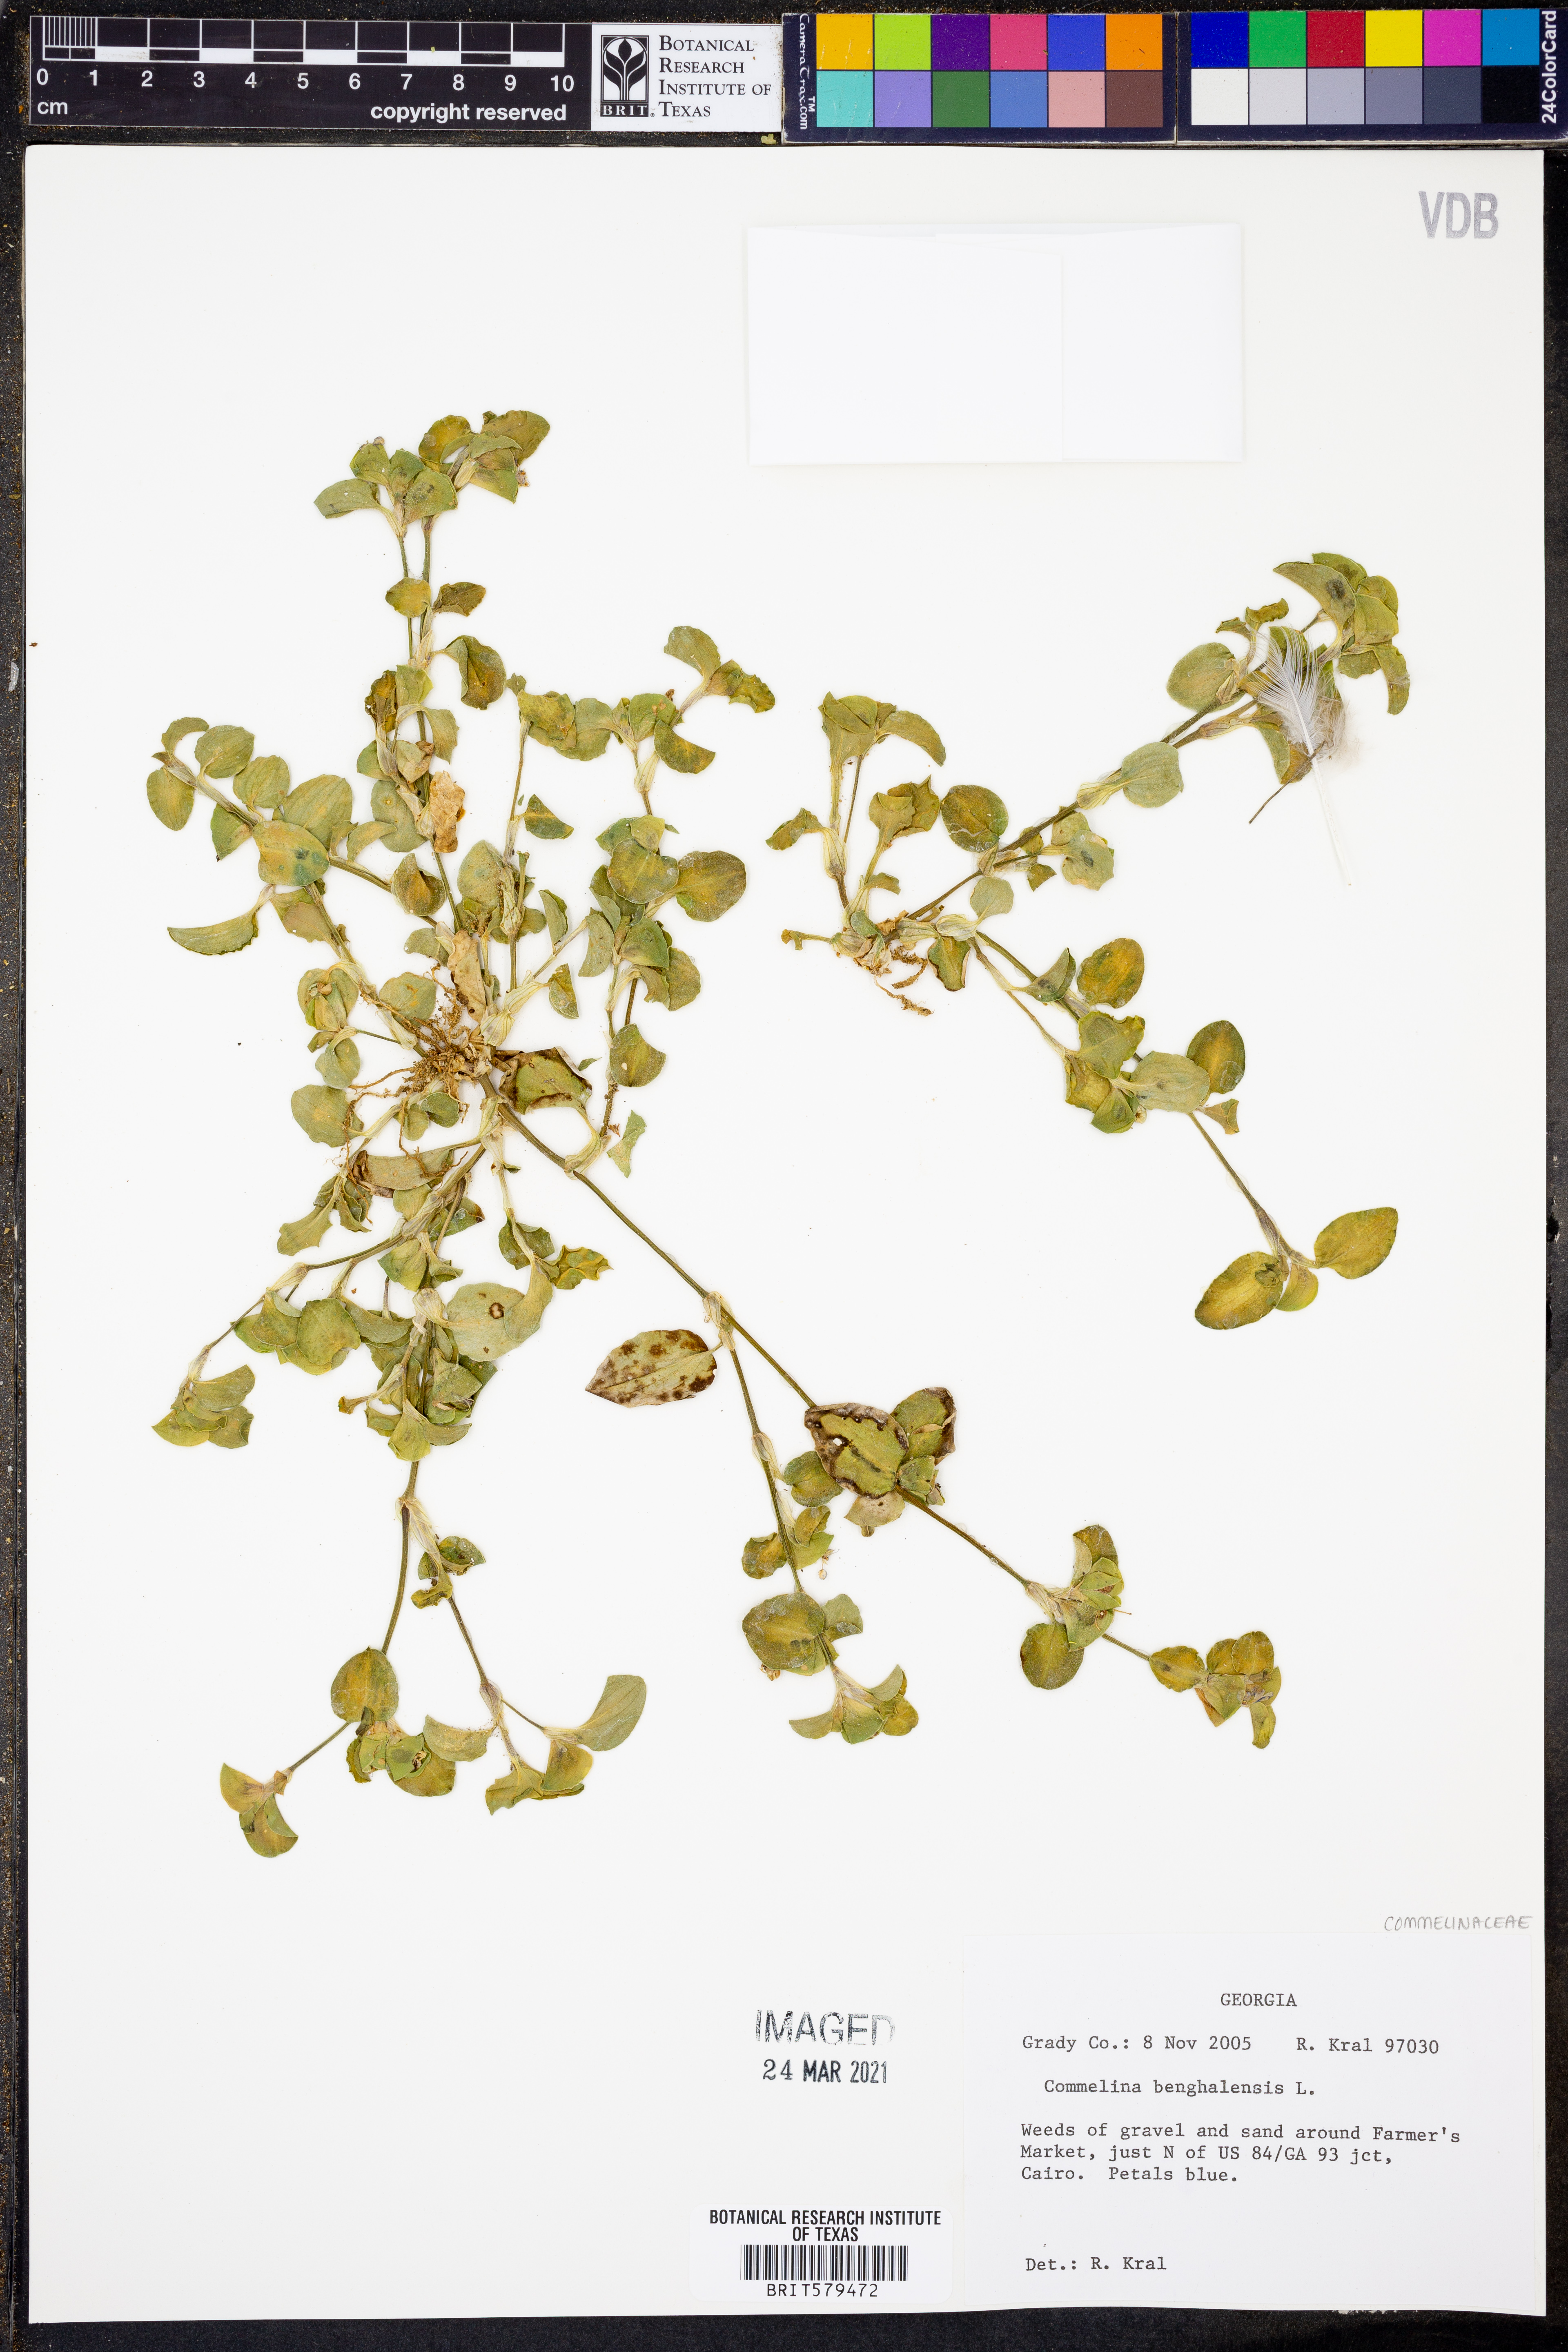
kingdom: Plantae
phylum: Tracheophyta
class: Liliopsida
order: Commelinales
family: Commelinaceae
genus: Commelina
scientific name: Commelina benghalensis
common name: Jio
